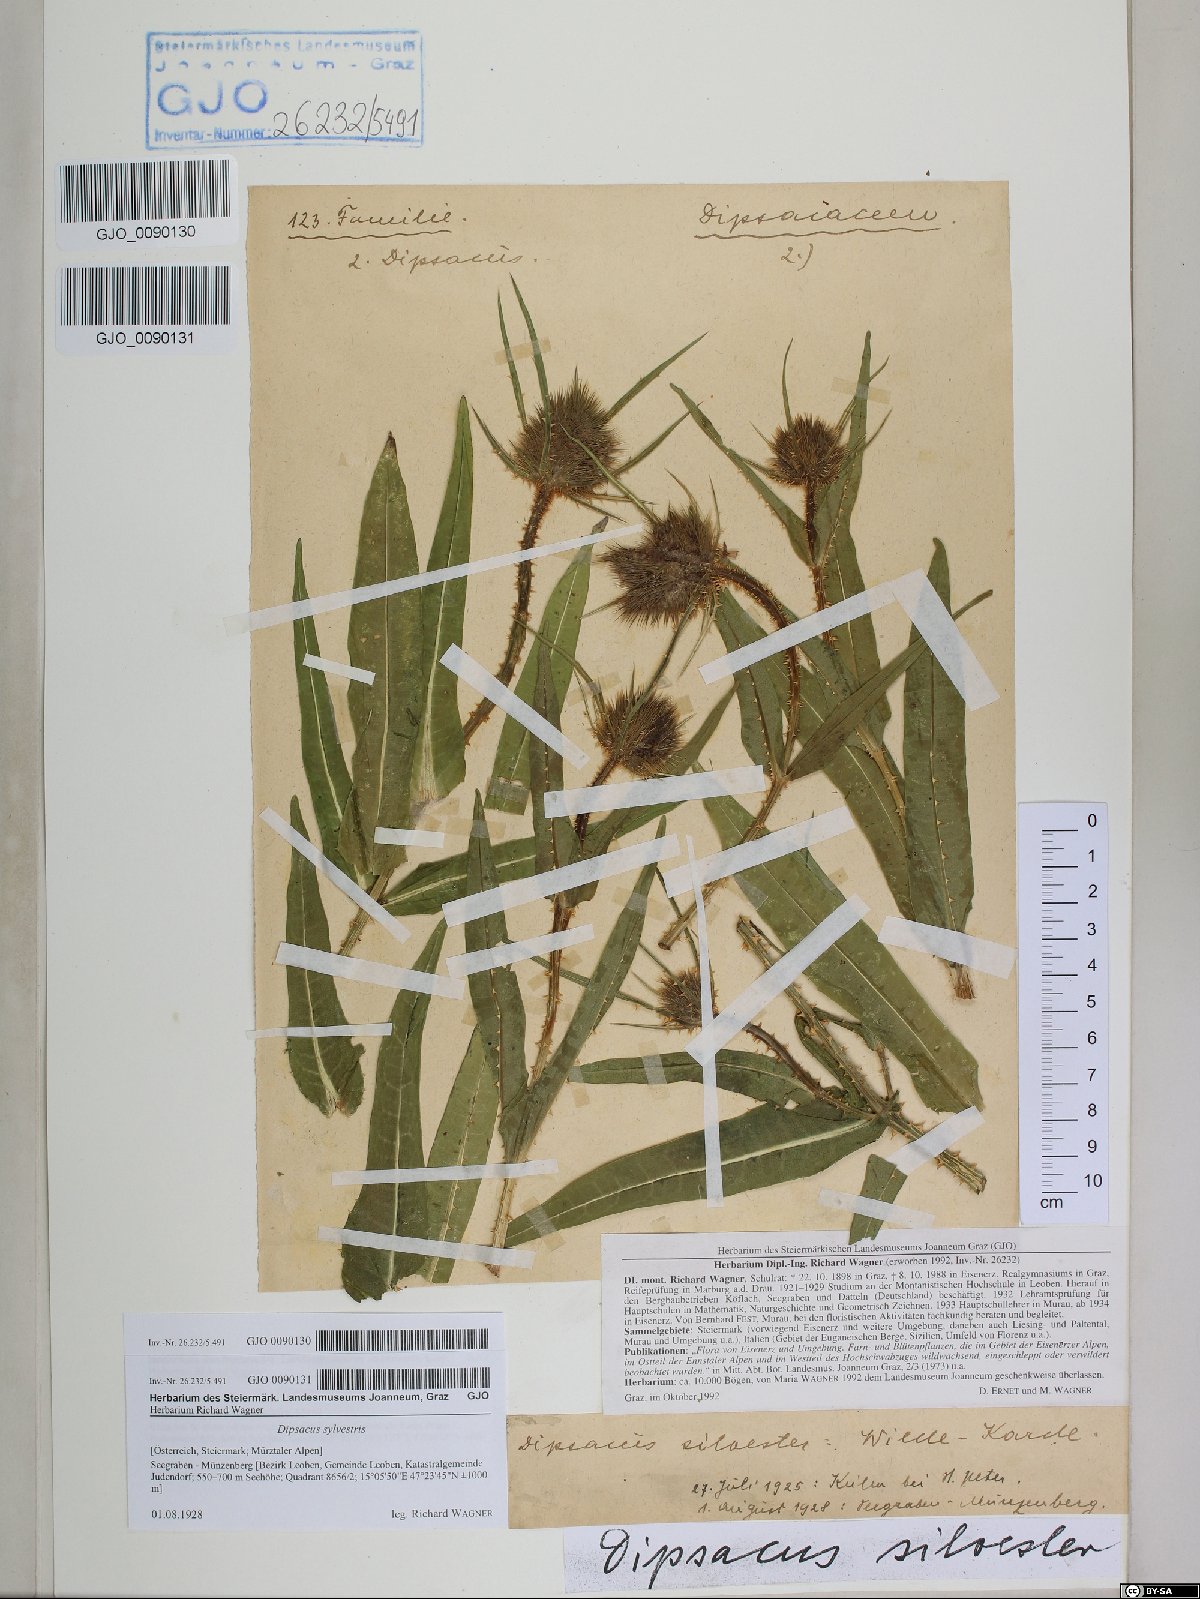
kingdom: Plantae
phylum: Tracheophyta
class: Magnoliopsida
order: Dipsacales
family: Caprifoliaceae
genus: Dipsacus
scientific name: Dipsacus fullonum
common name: Teasel
